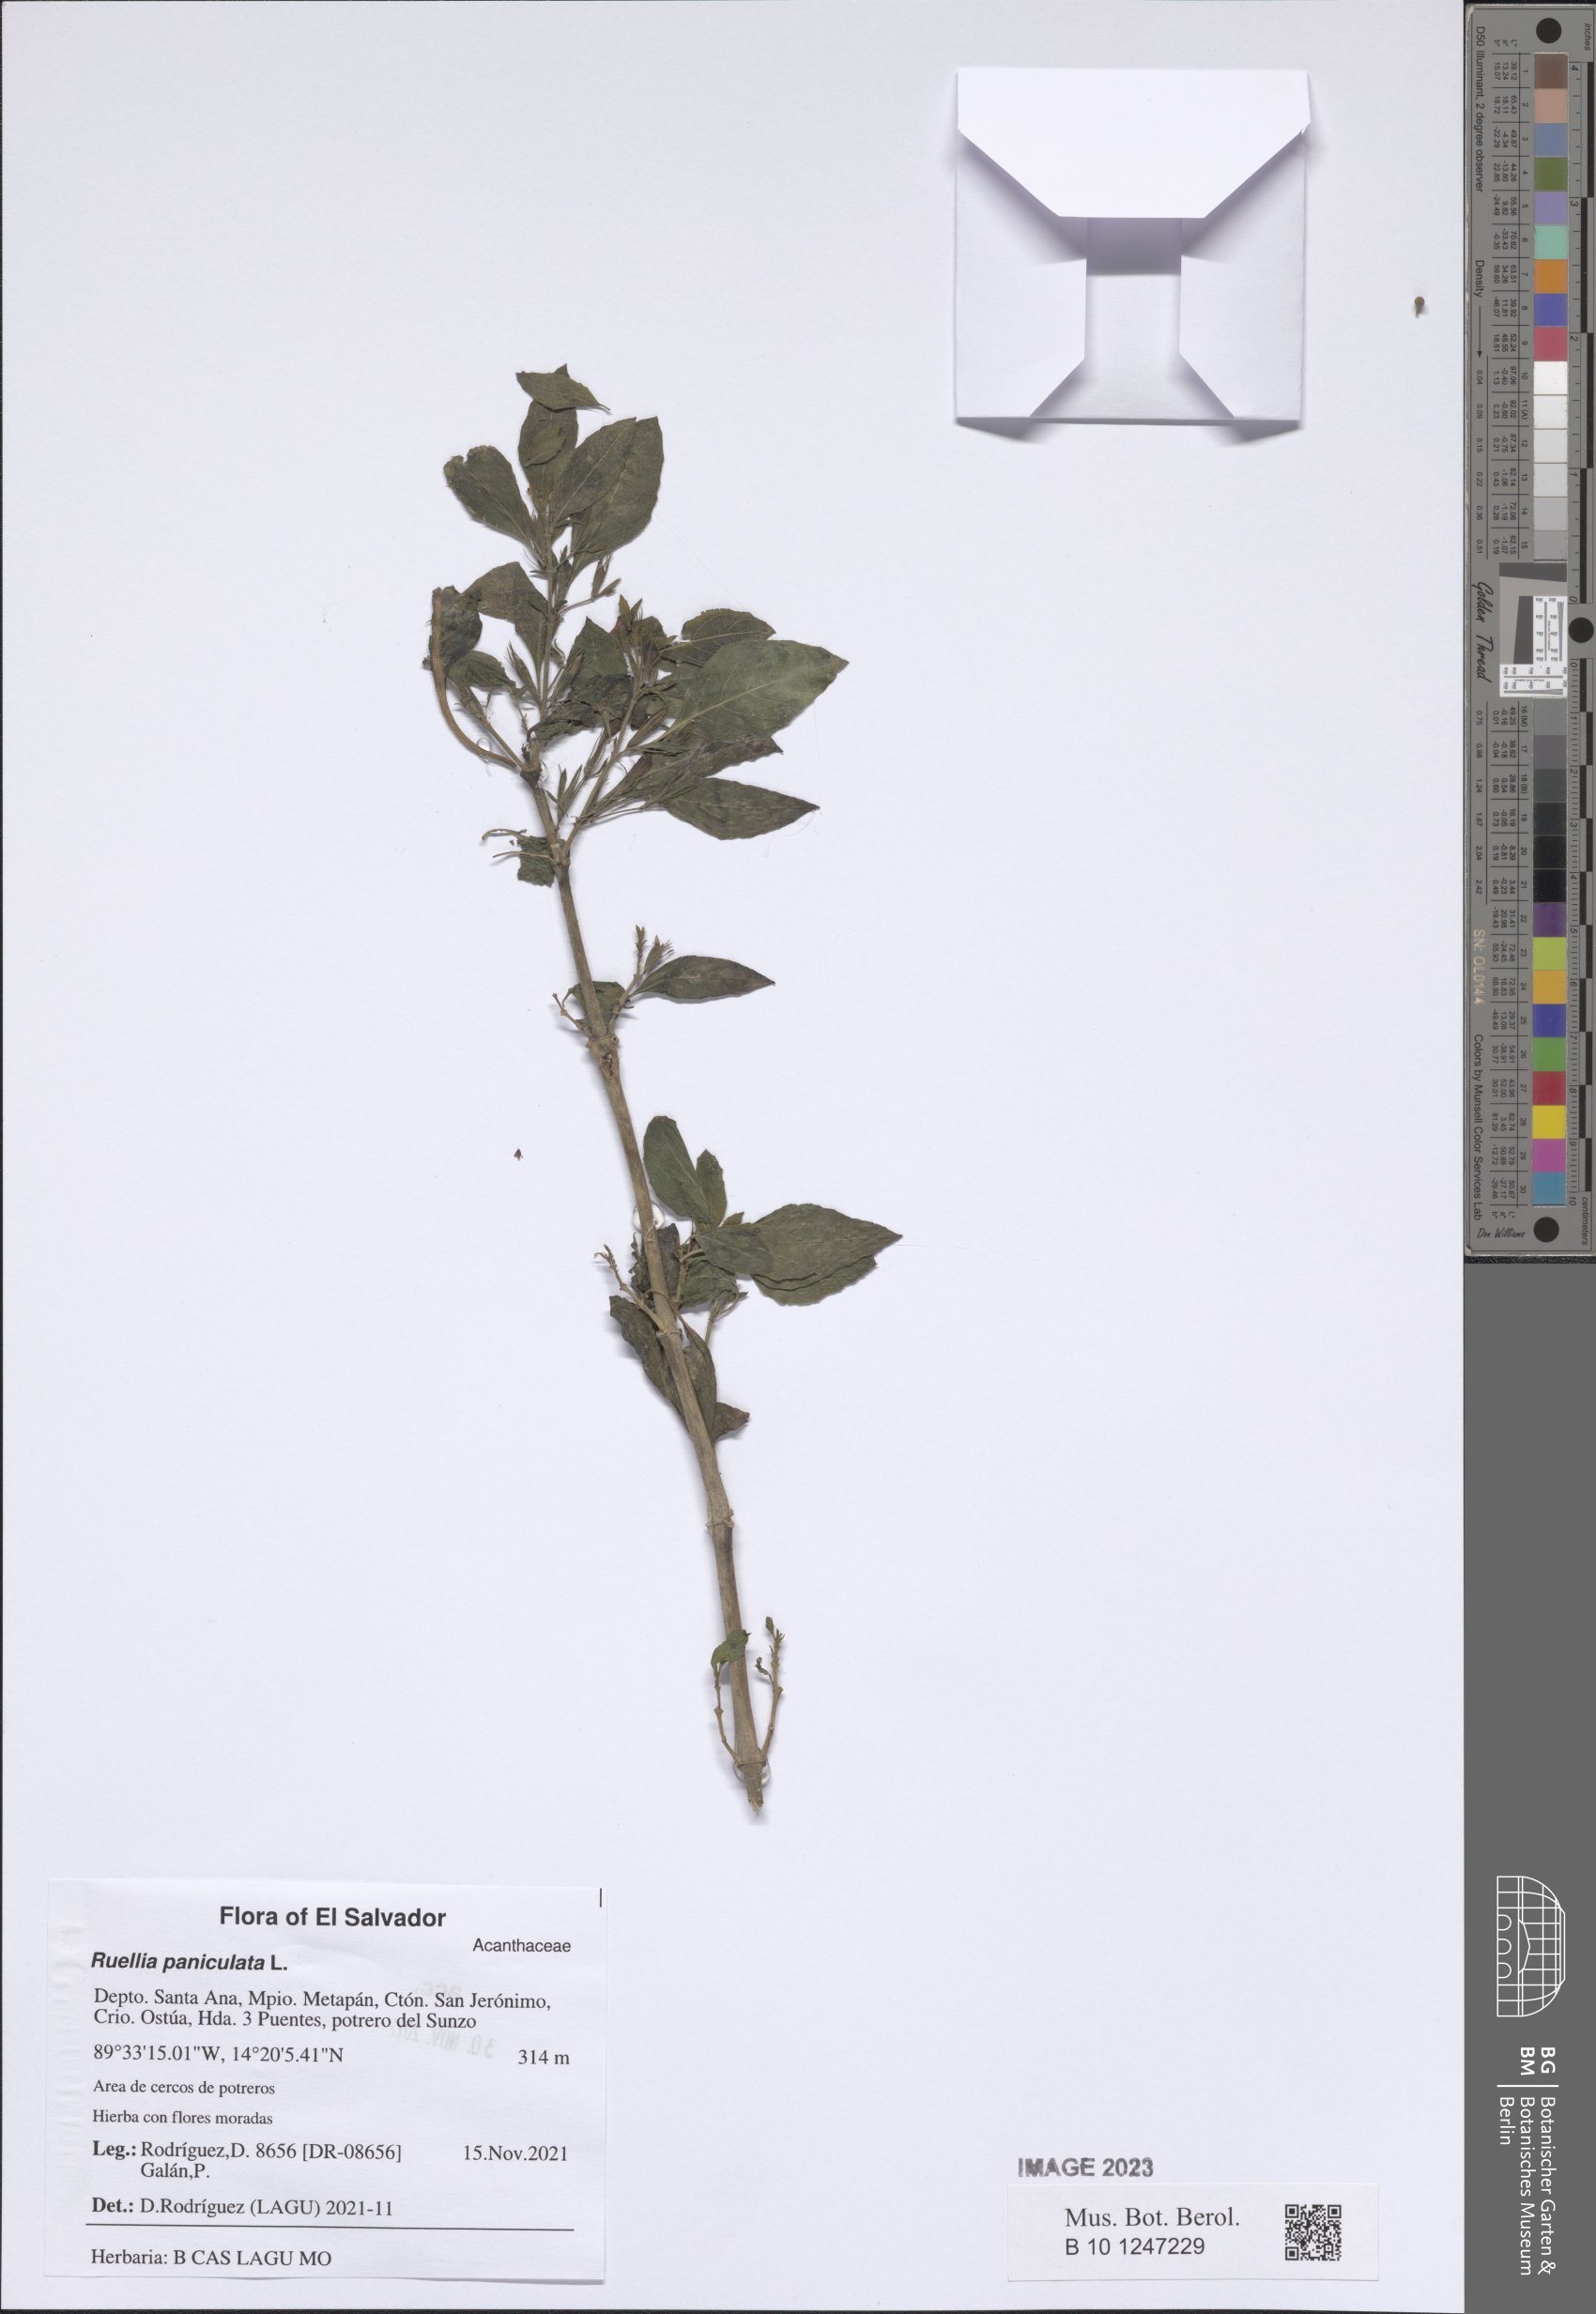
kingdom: Plantae
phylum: Tracheophyta
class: Magnoliopsida
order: Lamiales
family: Acanthaceae
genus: Ruellia
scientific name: Ruellia paniculata
